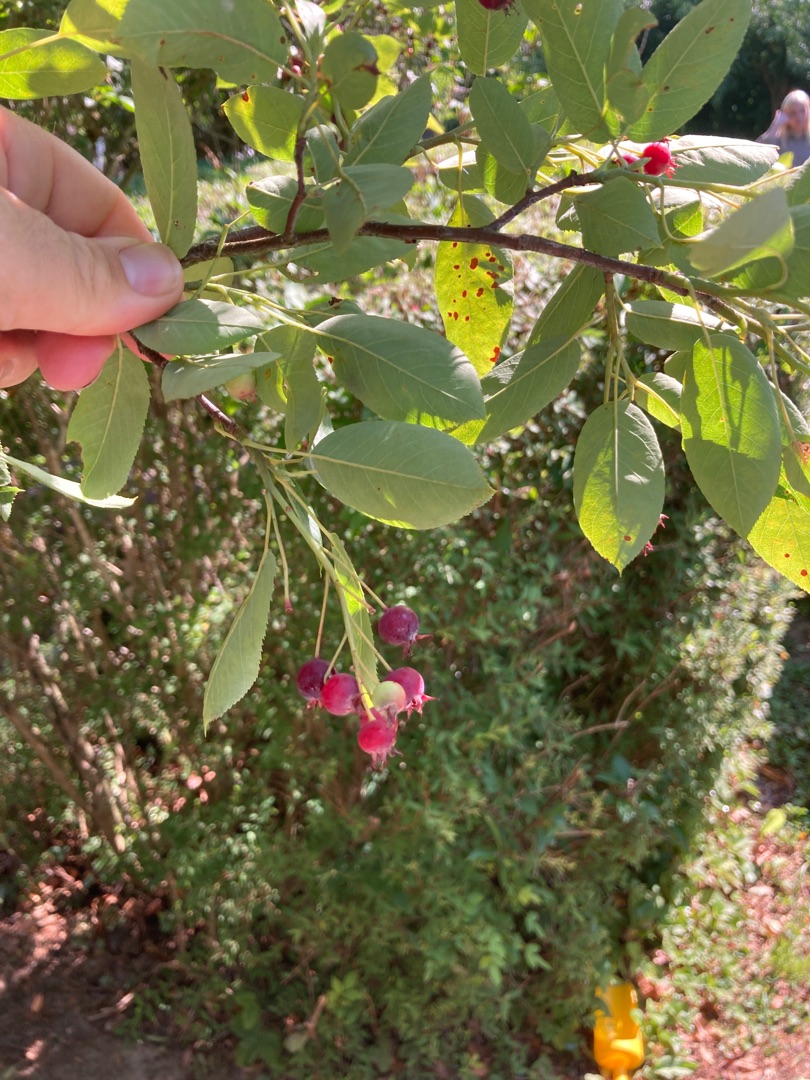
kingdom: Plantae
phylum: Tracheophyta
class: Magnoliopsida
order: Rosales
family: Rosaceae
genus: Amelanchier
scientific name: Amelanchier lamarckii
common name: Bærmispel
